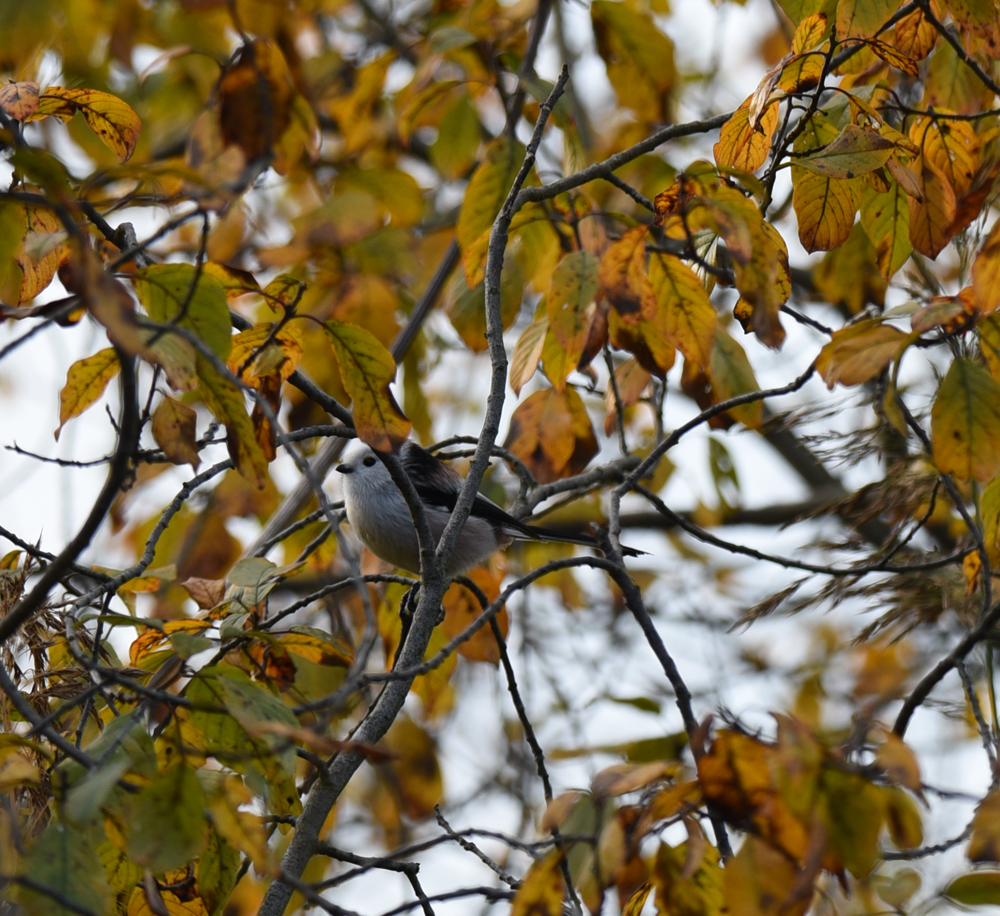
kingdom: Animalia
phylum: Chordata
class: Aves
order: Passeriformes
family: Aegithalidae
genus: Aegithalos
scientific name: Aegithalos caudatus
